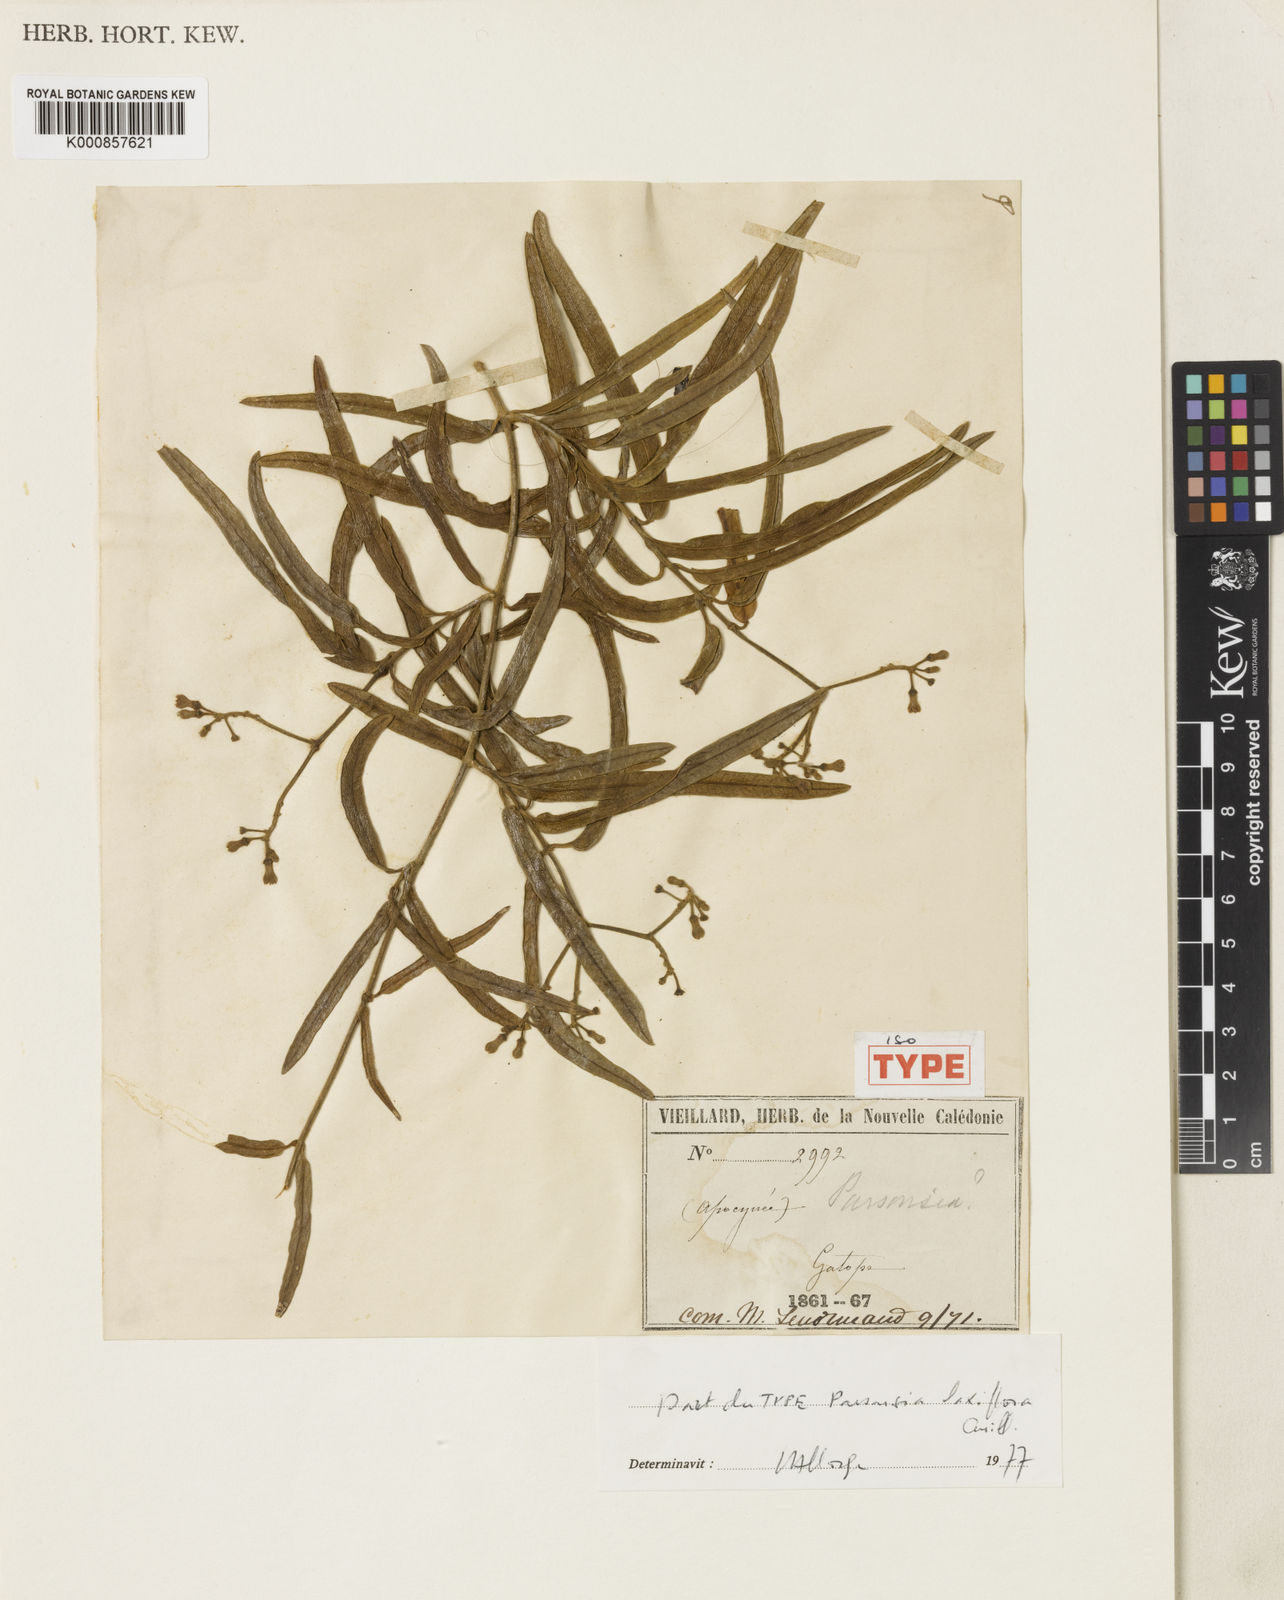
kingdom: Plantae
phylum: Tracheophyta
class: Magnoliopsida
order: Gentianales
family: Apocynaceae
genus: Parsonsia
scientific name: Parsonsia laxiflora
